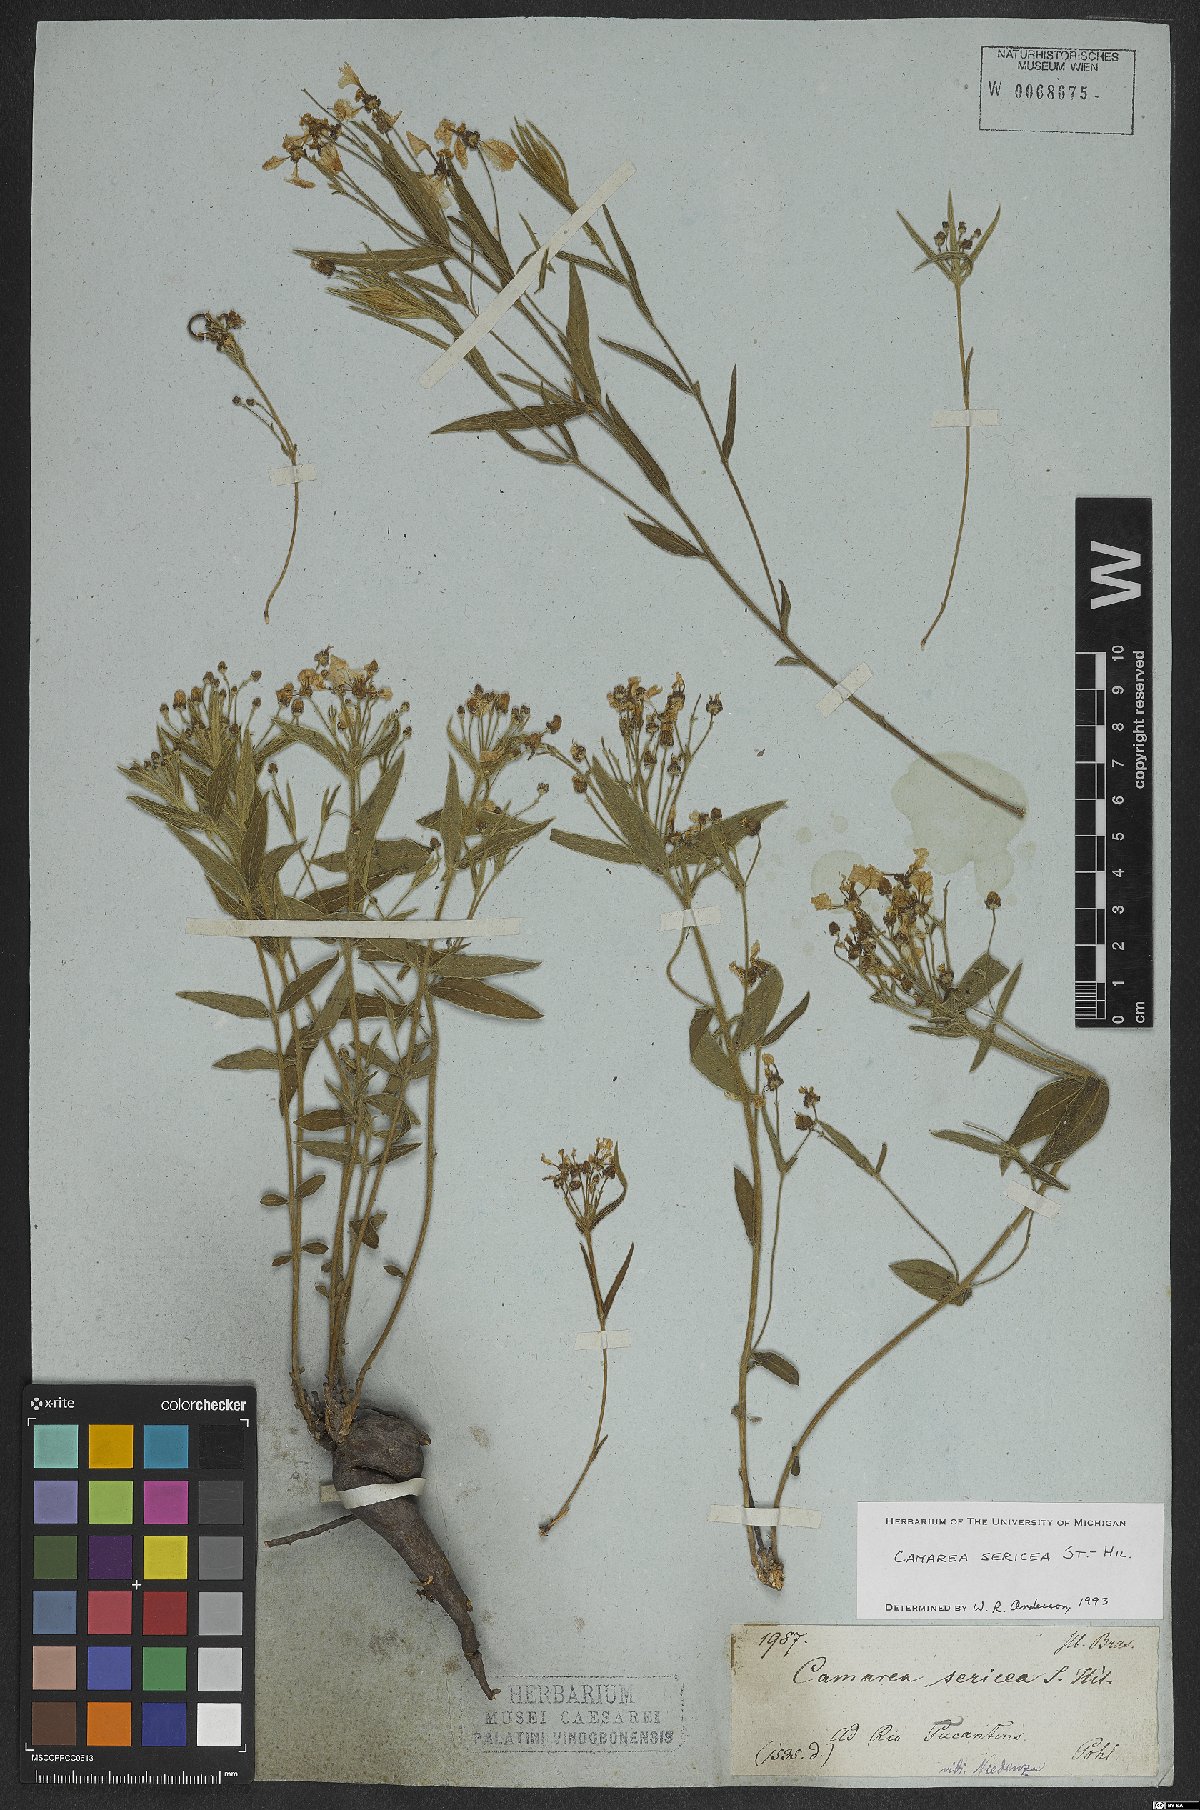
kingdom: Plantae
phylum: Tracheophyta
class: Magnoliopsida
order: Malpighiales
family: Malpighiaceae
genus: Camarea
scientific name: Camarea sericea
